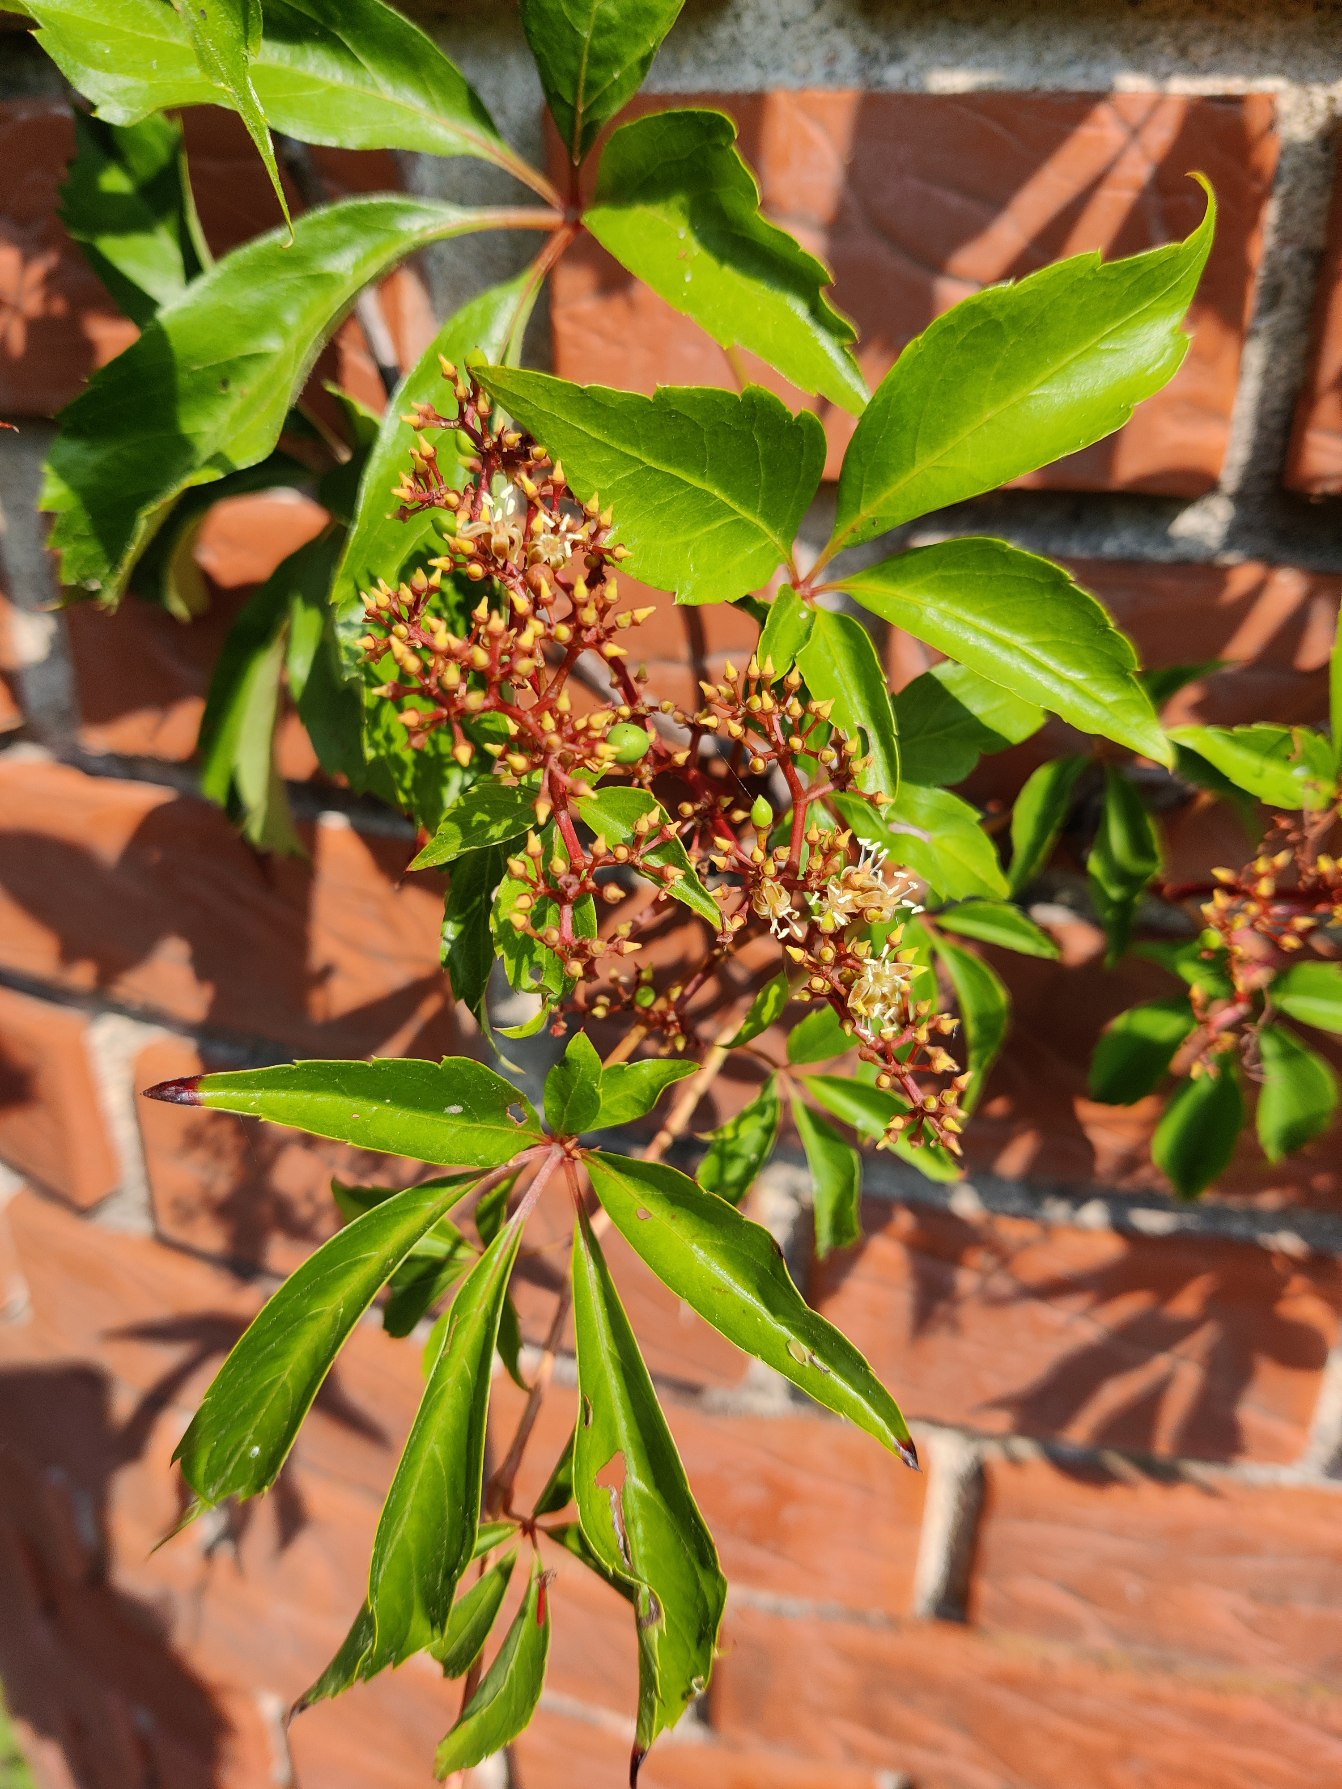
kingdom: Plantae
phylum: Tracheophyta
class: Magnoliopsida
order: Vitales
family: Vitaceae
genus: Parthenocissus
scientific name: Parthenocissus inserta
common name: Vildvin
